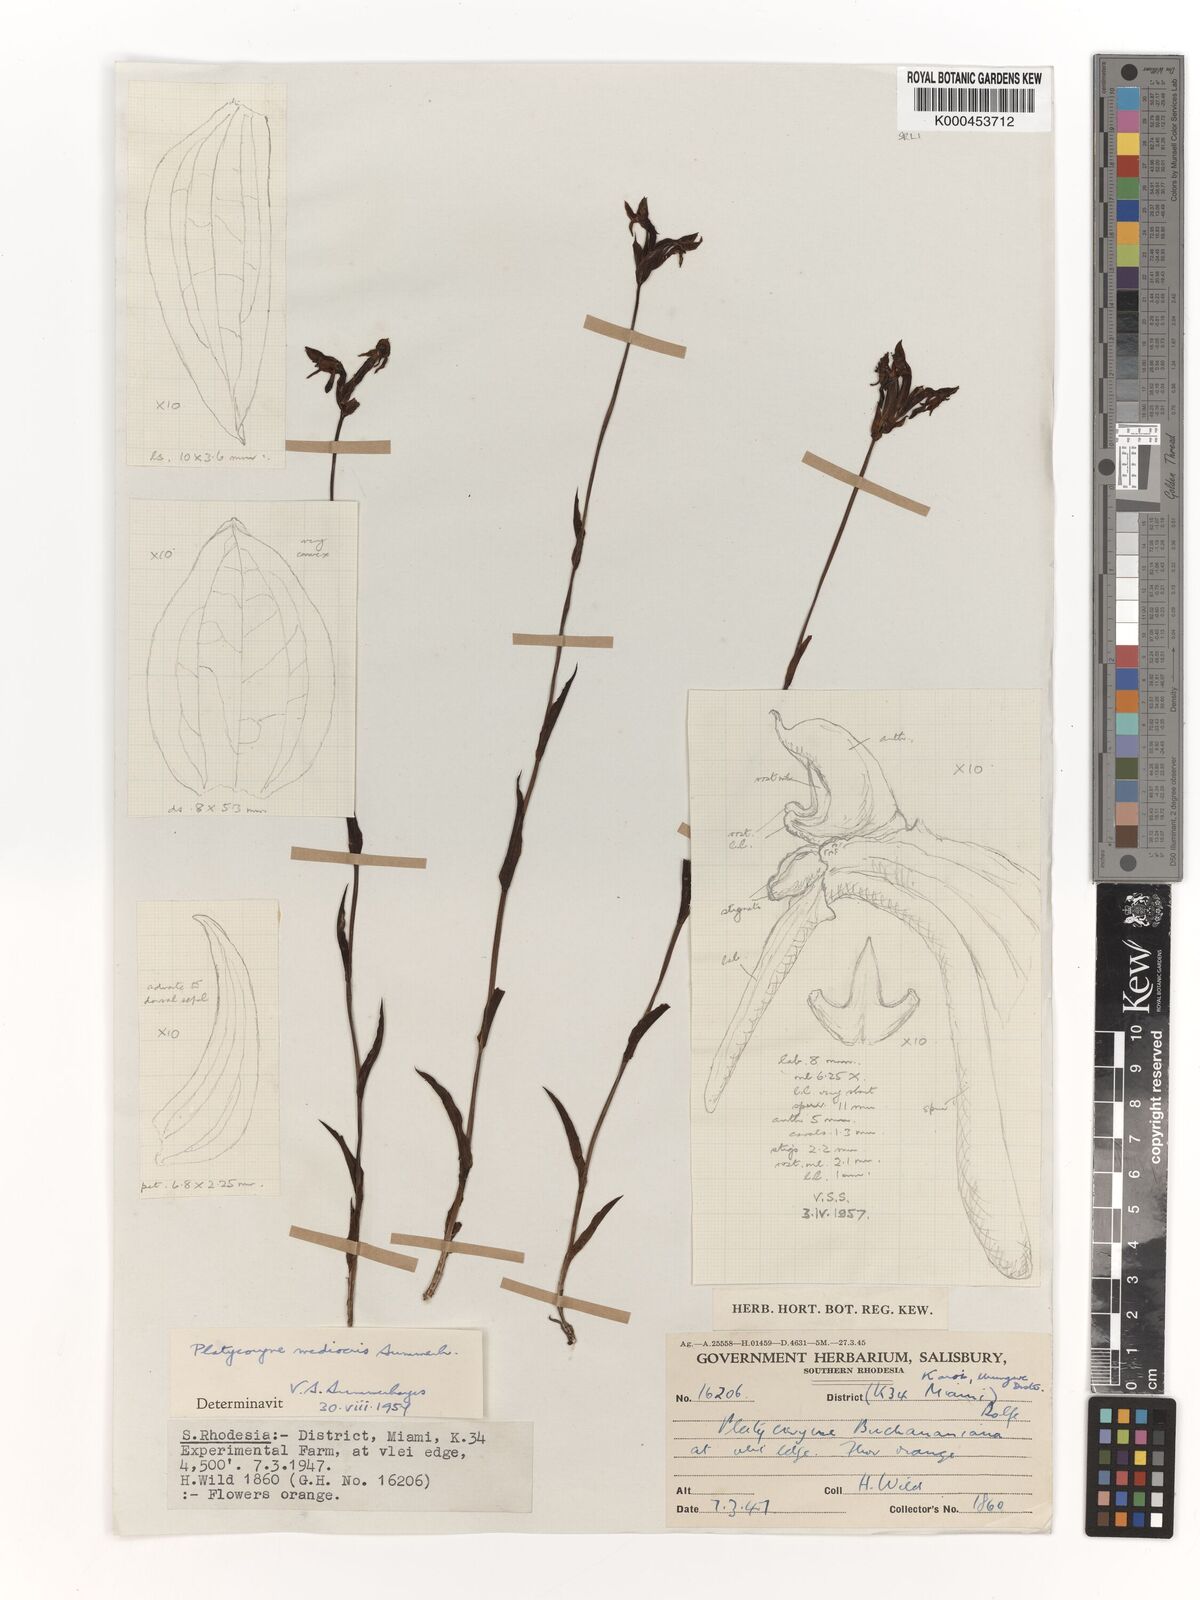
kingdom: Plantae
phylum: Tracheophyta
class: Liliopsida
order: Asparagales
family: Orchidaceae
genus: Platycoryne
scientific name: Platycoryne mediocris
